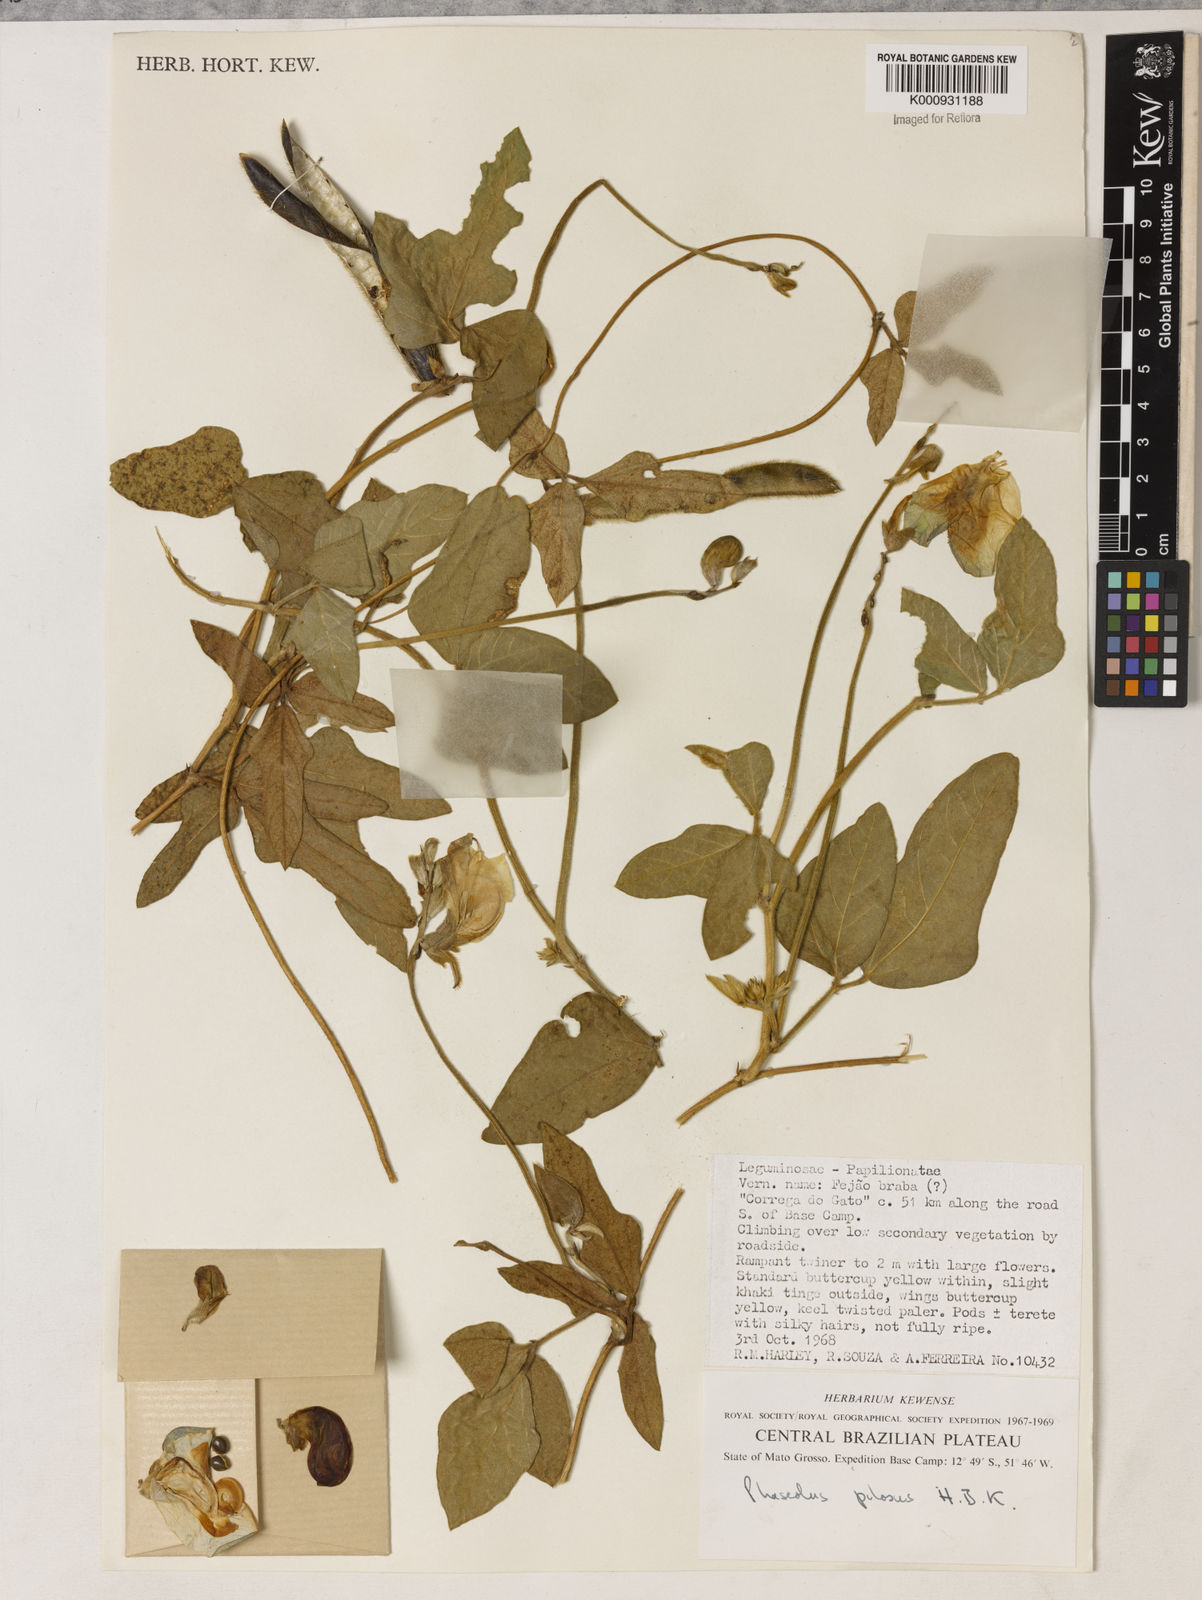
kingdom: Plantae
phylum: Tracheophyta
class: Magnoliopsida
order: Fabales
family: Fabaceae
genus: Vigna
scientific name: Vigna lasiocarpa
